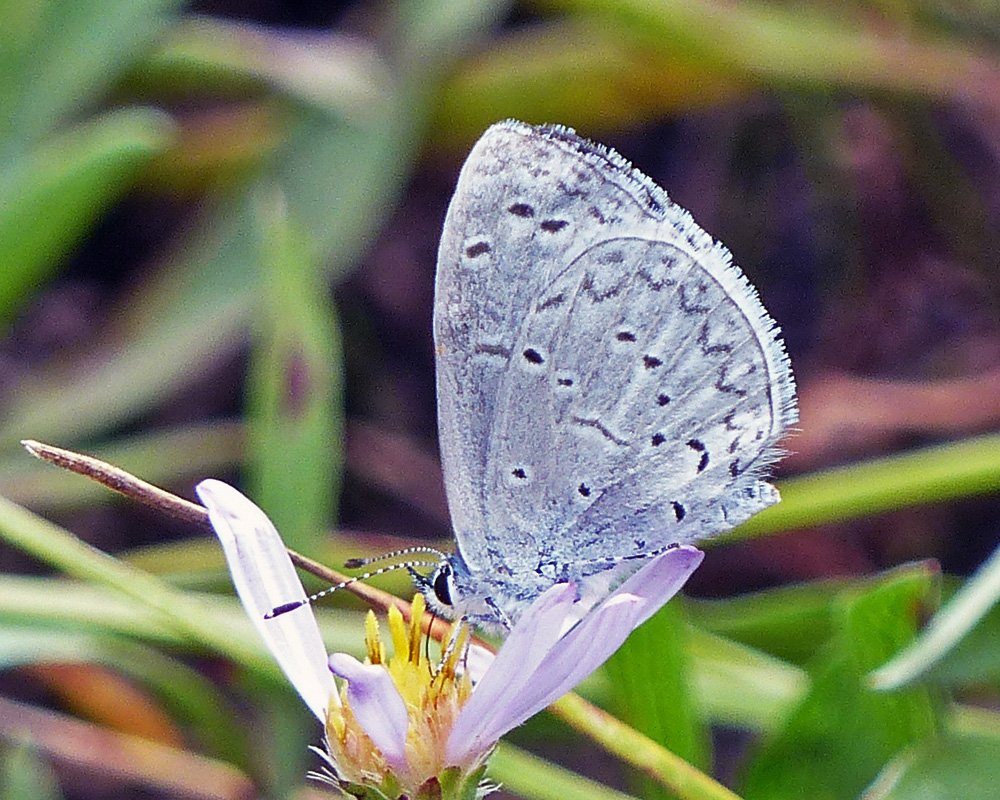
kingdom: Animalia
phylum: Arthropoda
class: Insecta
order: Lepidoptera
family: Lycaenidae
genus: Celastrina
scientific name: Celastrina ladon
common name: Spring Azure
